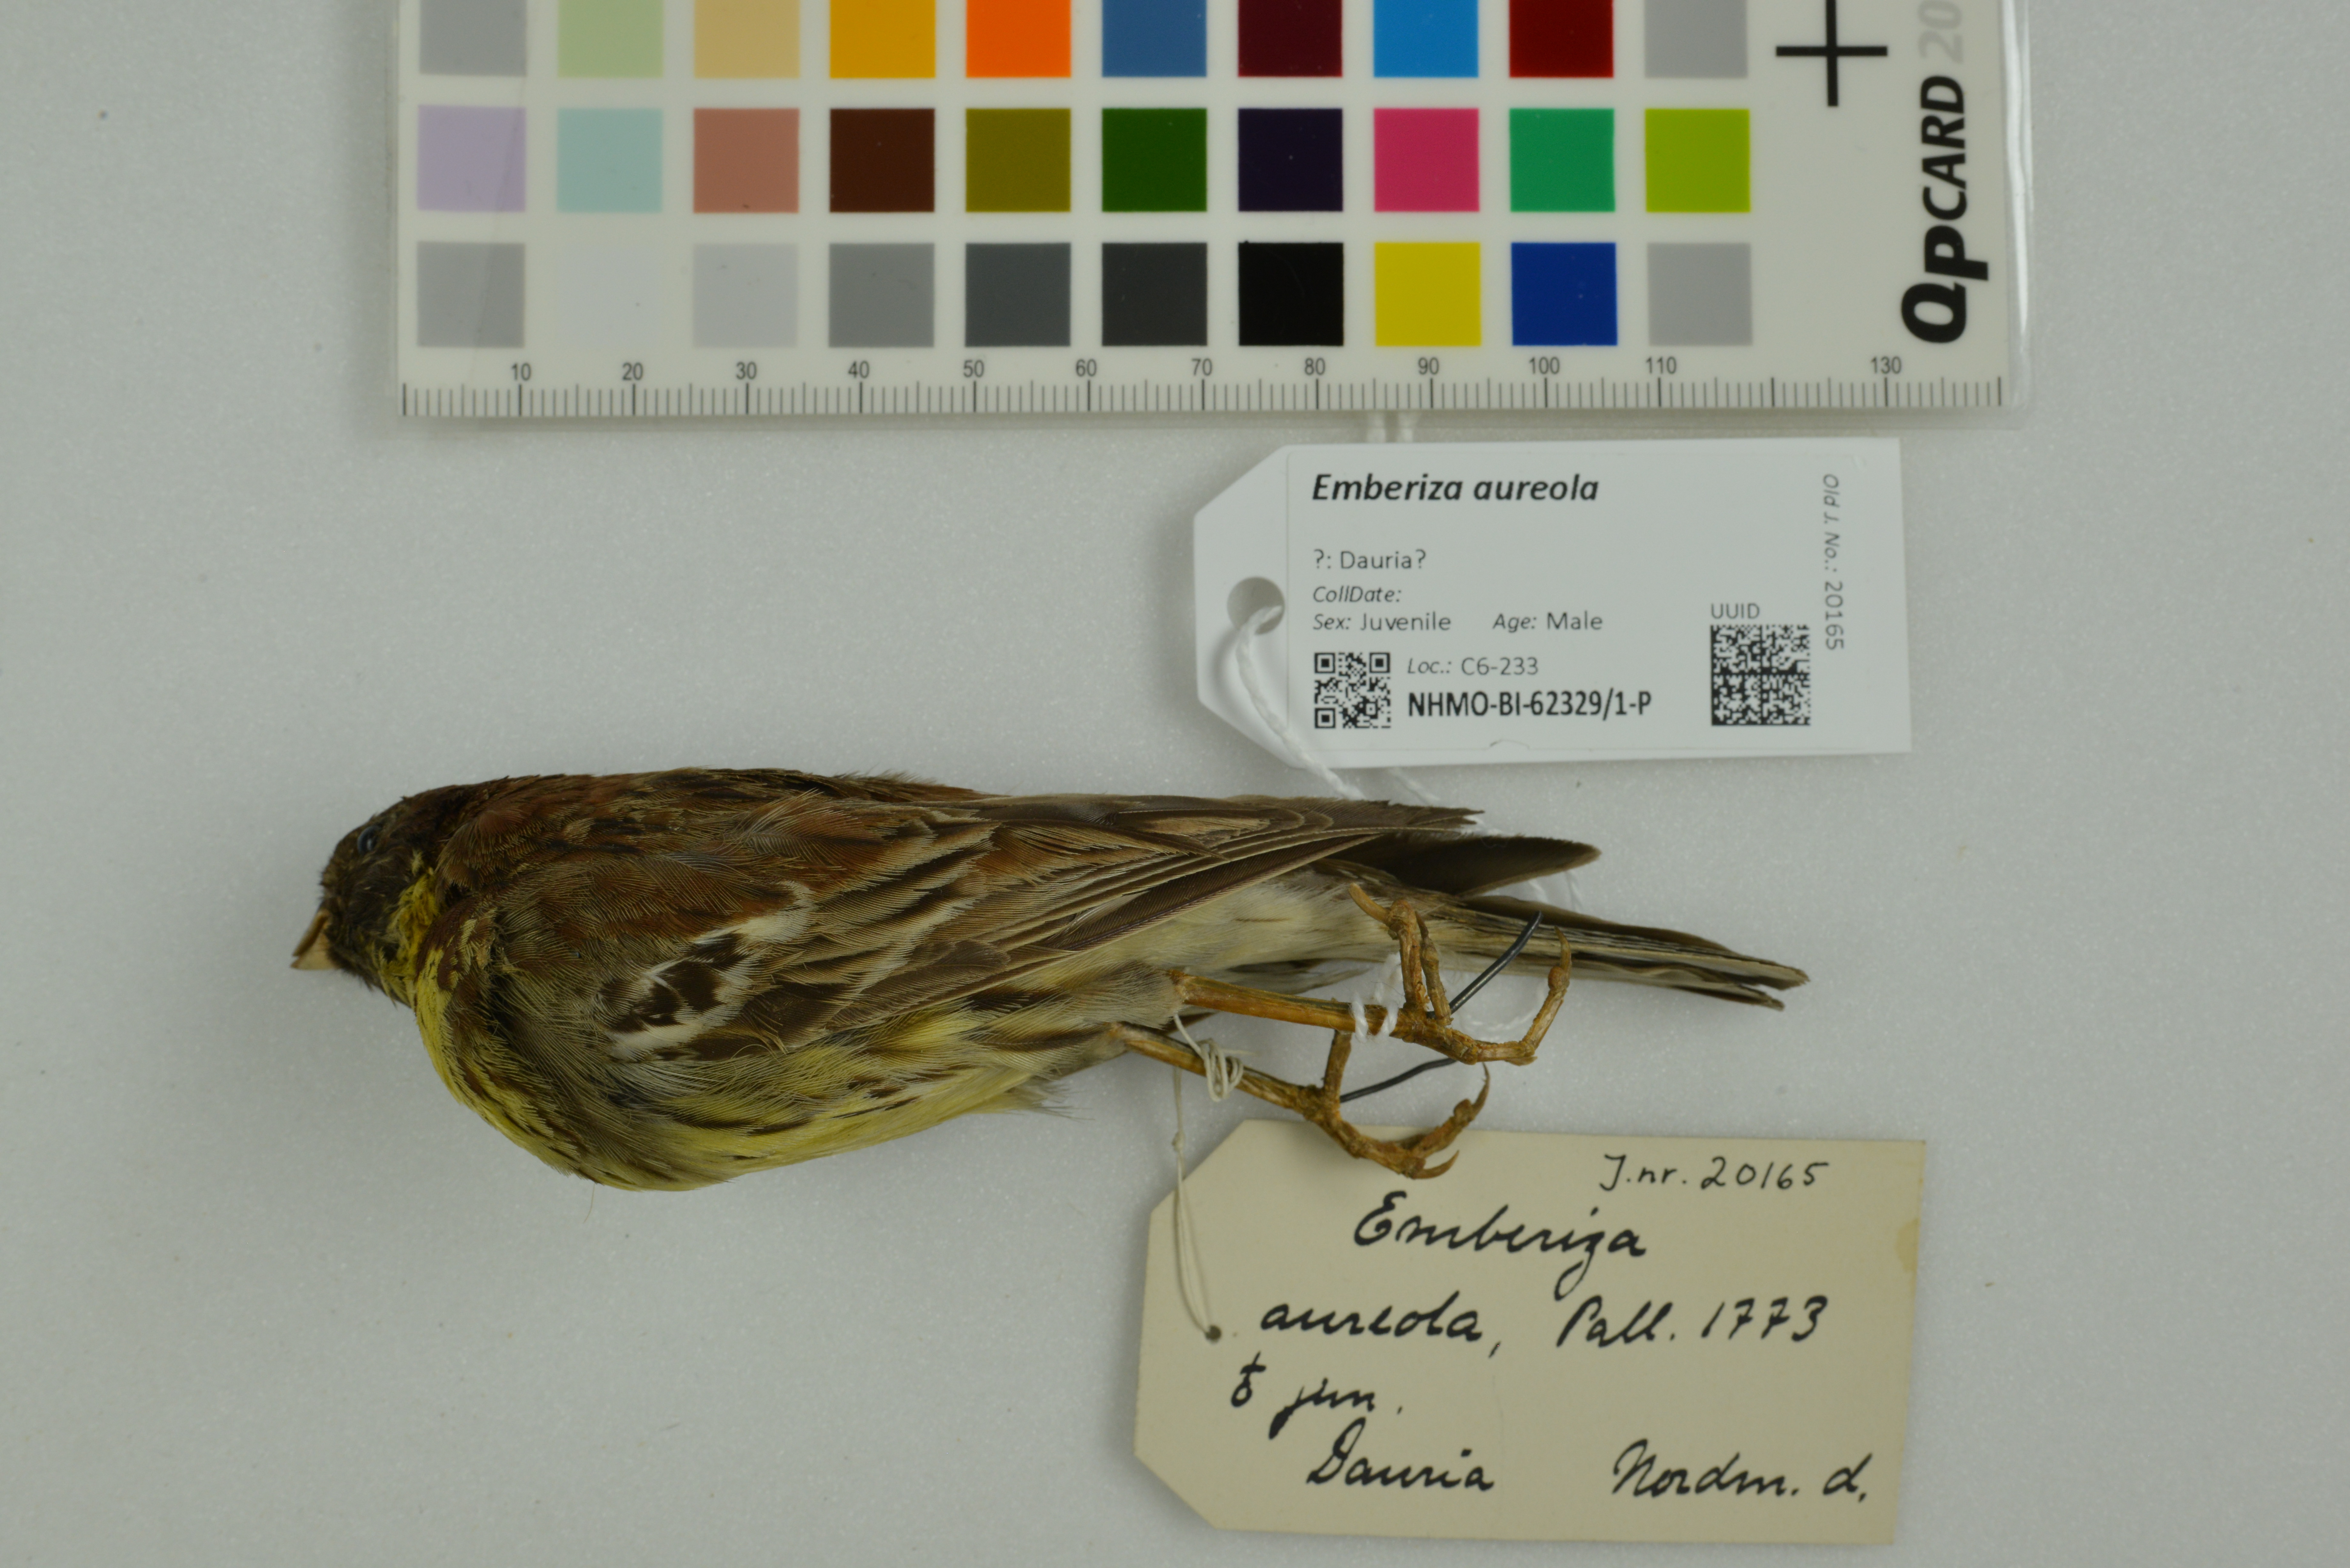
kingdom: Animalia
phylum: Chordata
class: Aves
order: Passeriformes
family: Emberizidae
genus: Emberiza
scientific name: Emberiza aureola
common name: Yellow-breasted bunting
